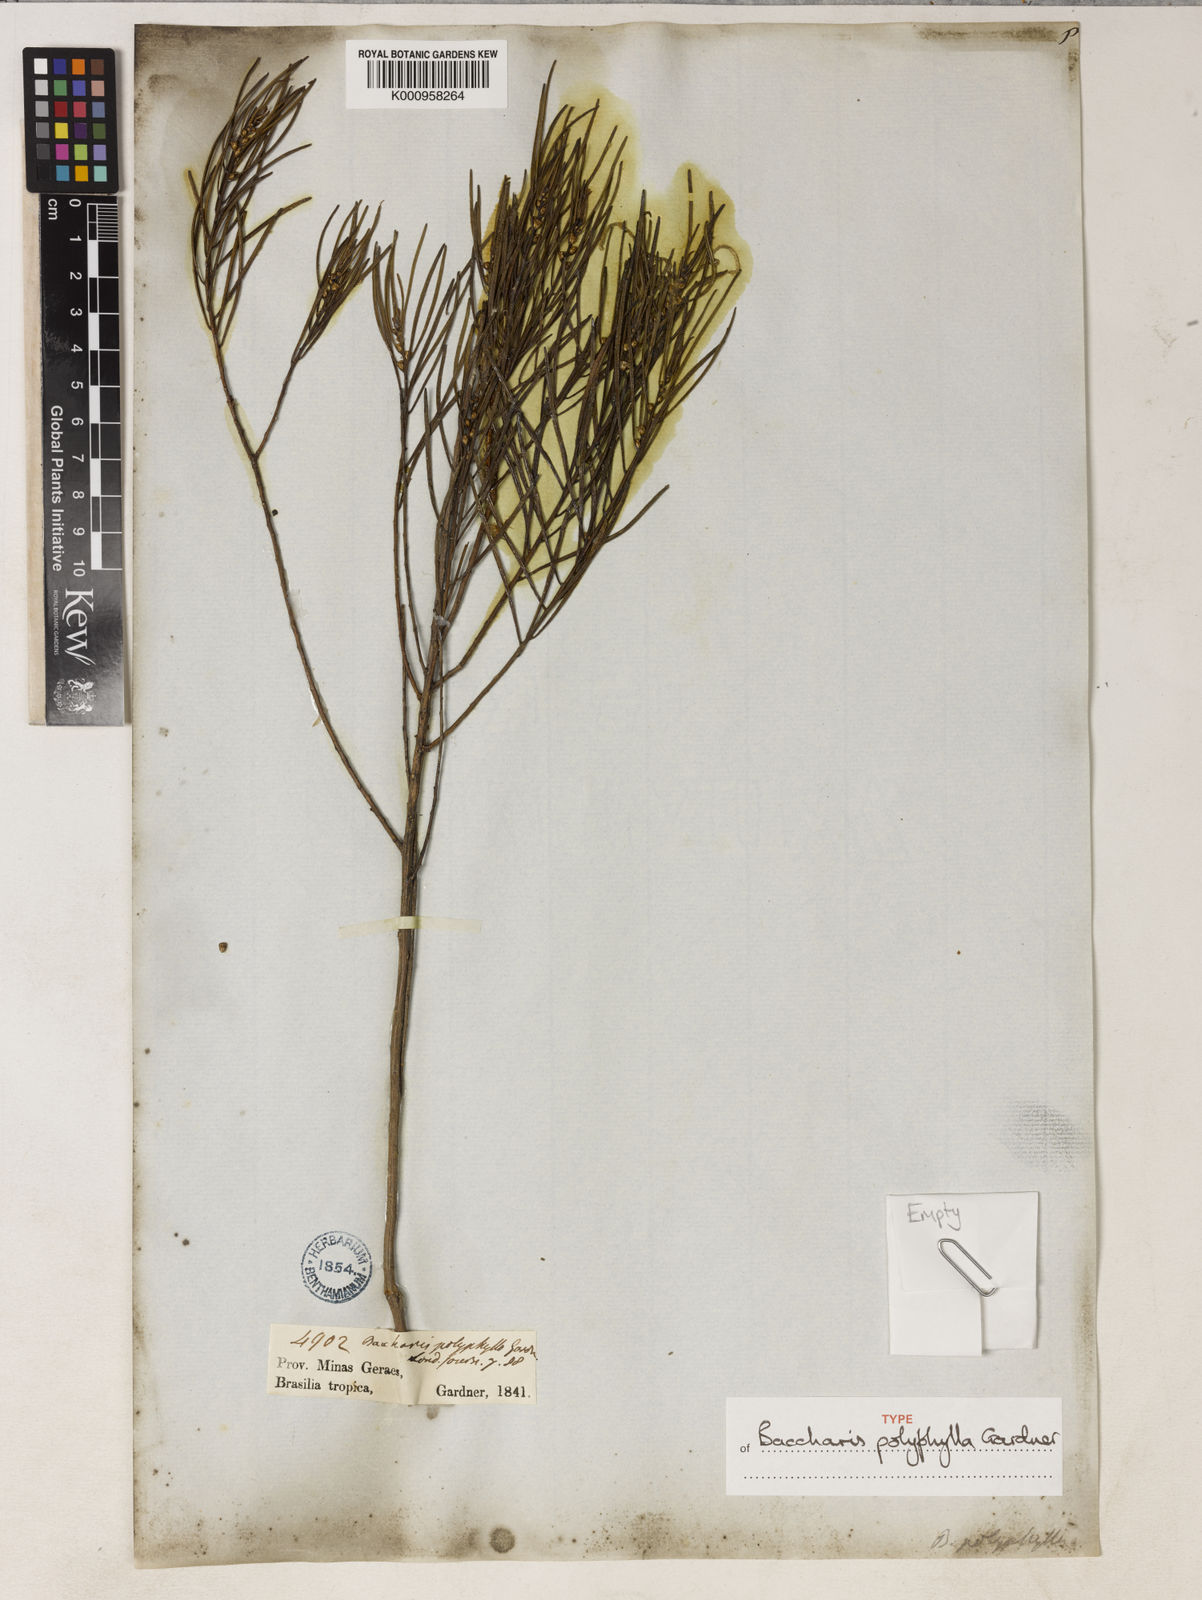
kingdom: Plantae
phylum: Tracheophyta
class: Magnoliopsida
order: Asterales
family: Asteraceae
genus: Baccharis
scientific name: Baccharis polyphylla
